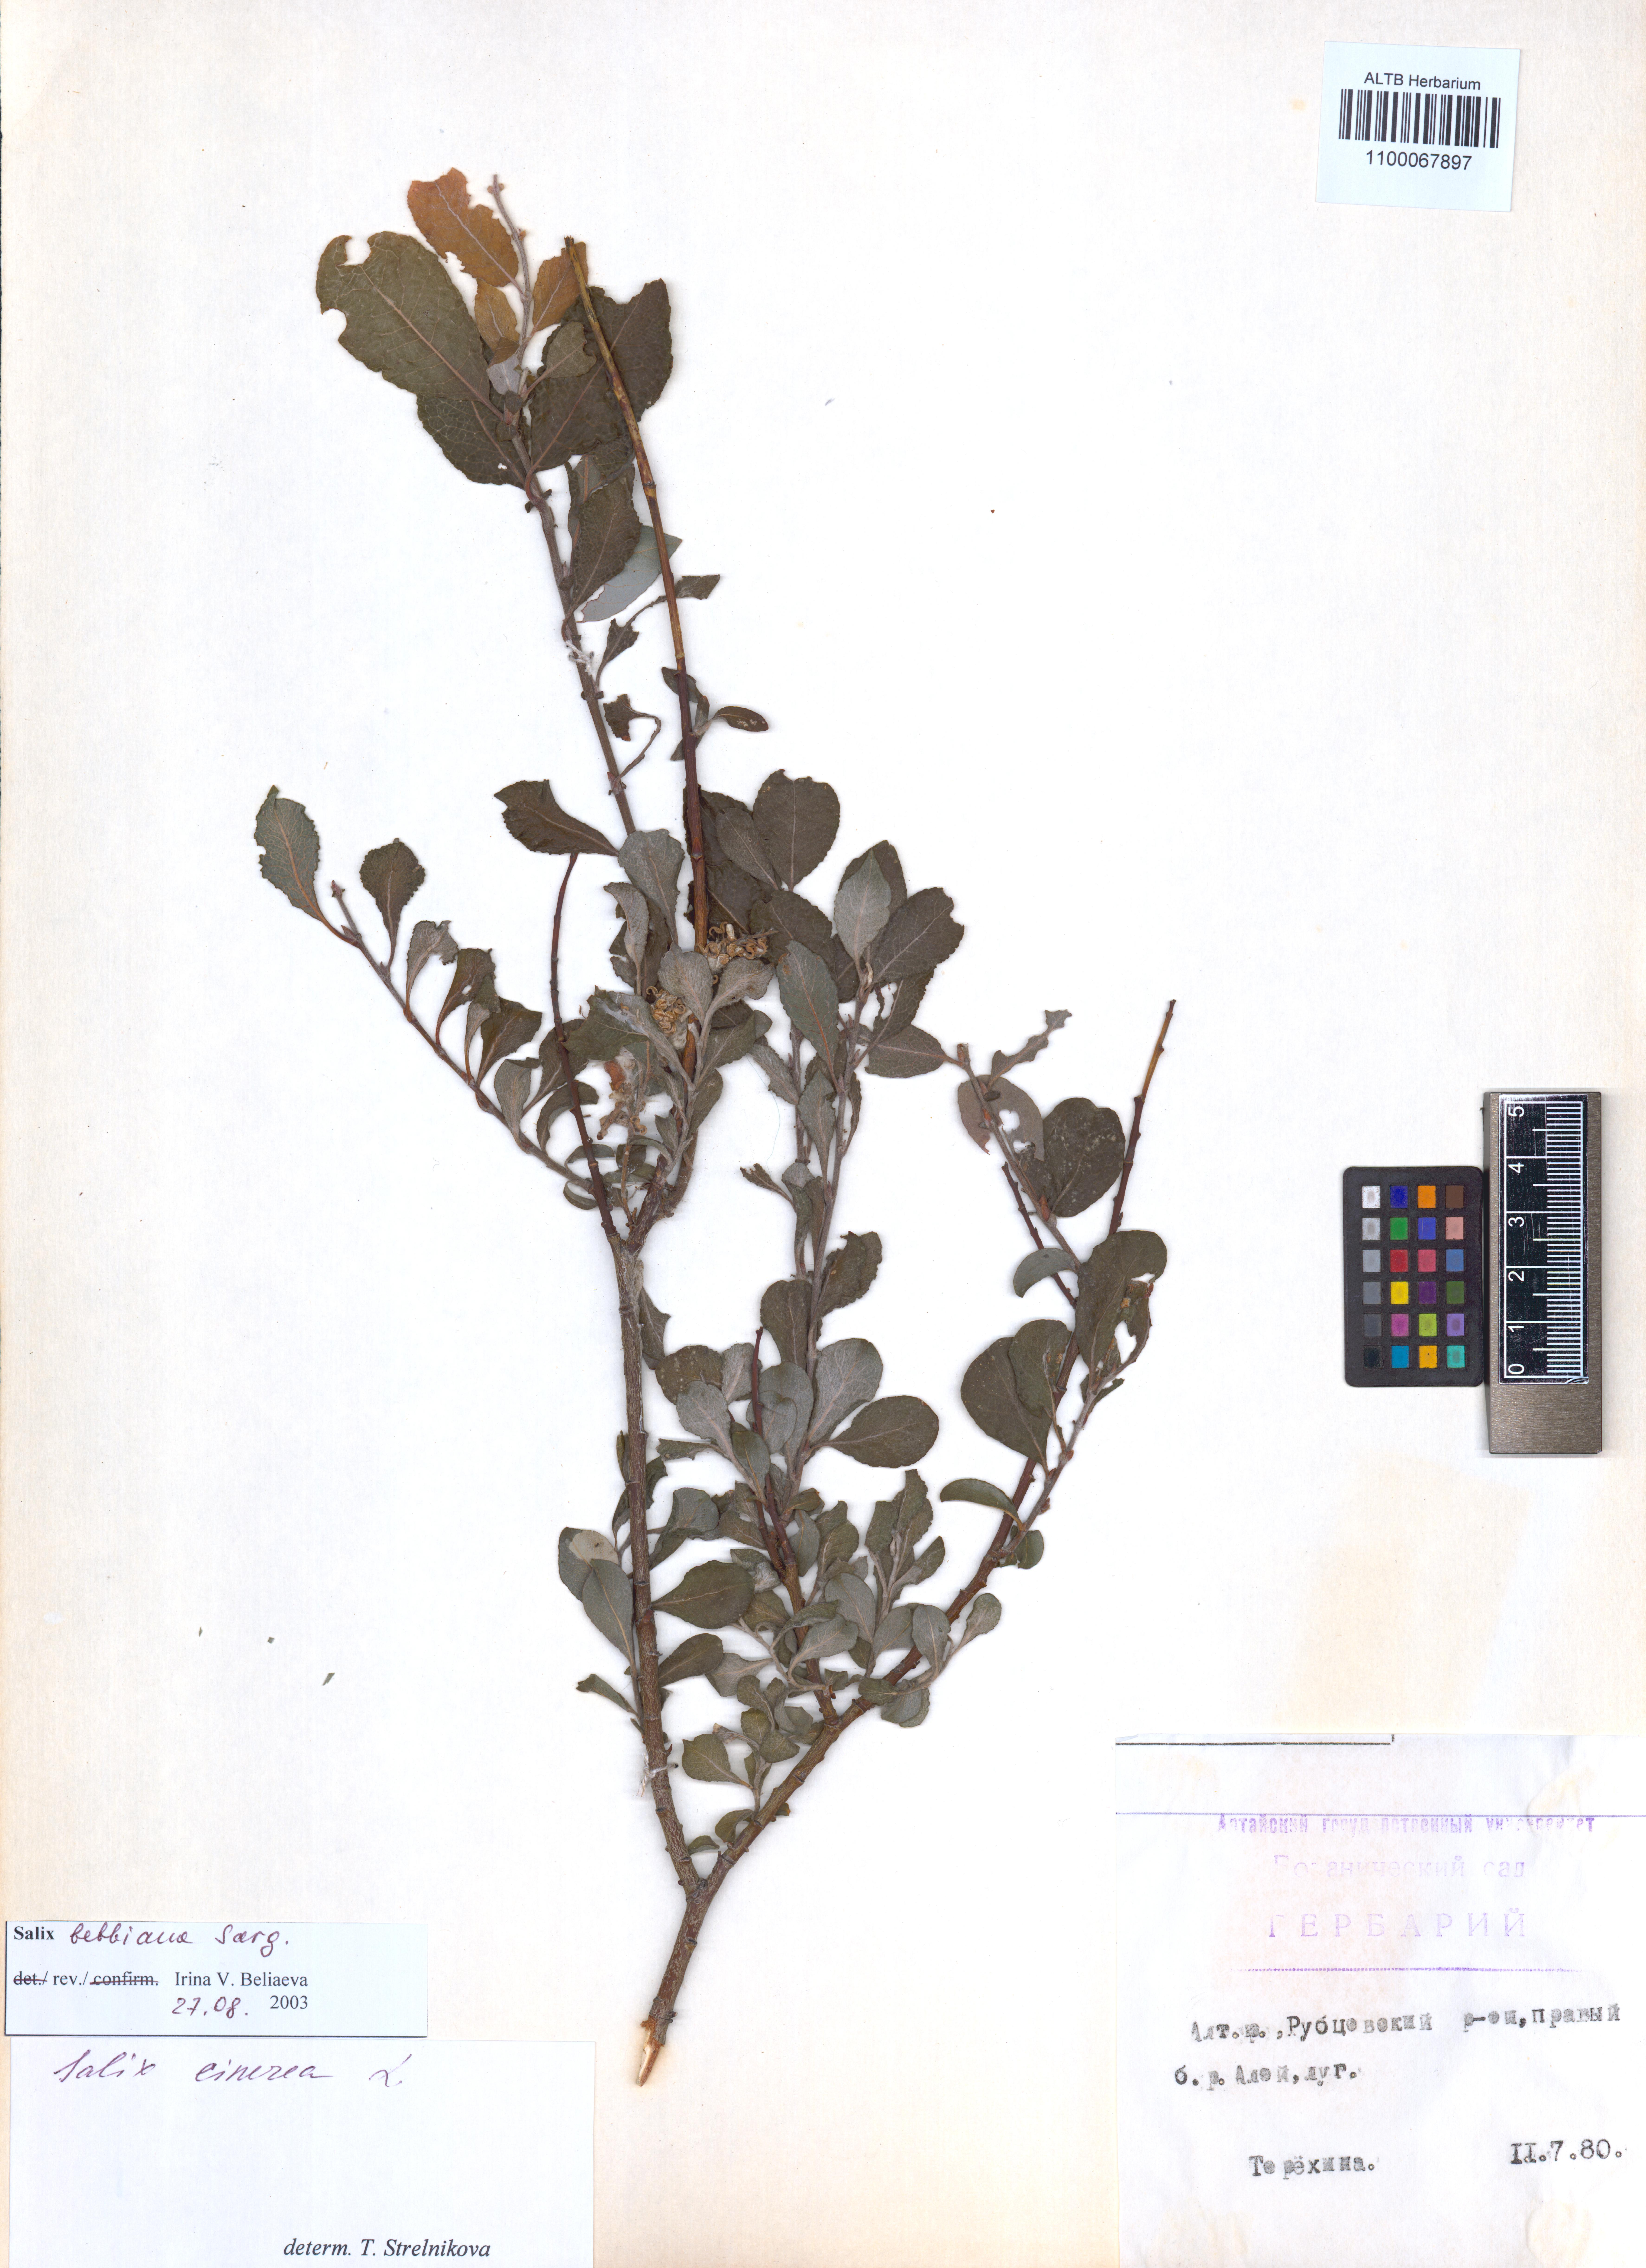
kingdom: Plantae
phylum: Tracheophyta
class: Magnoliopsida
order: Malpighiales
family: Salicaceae
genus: Salix
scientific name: Salix bebbiana
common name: Bebb's willow
